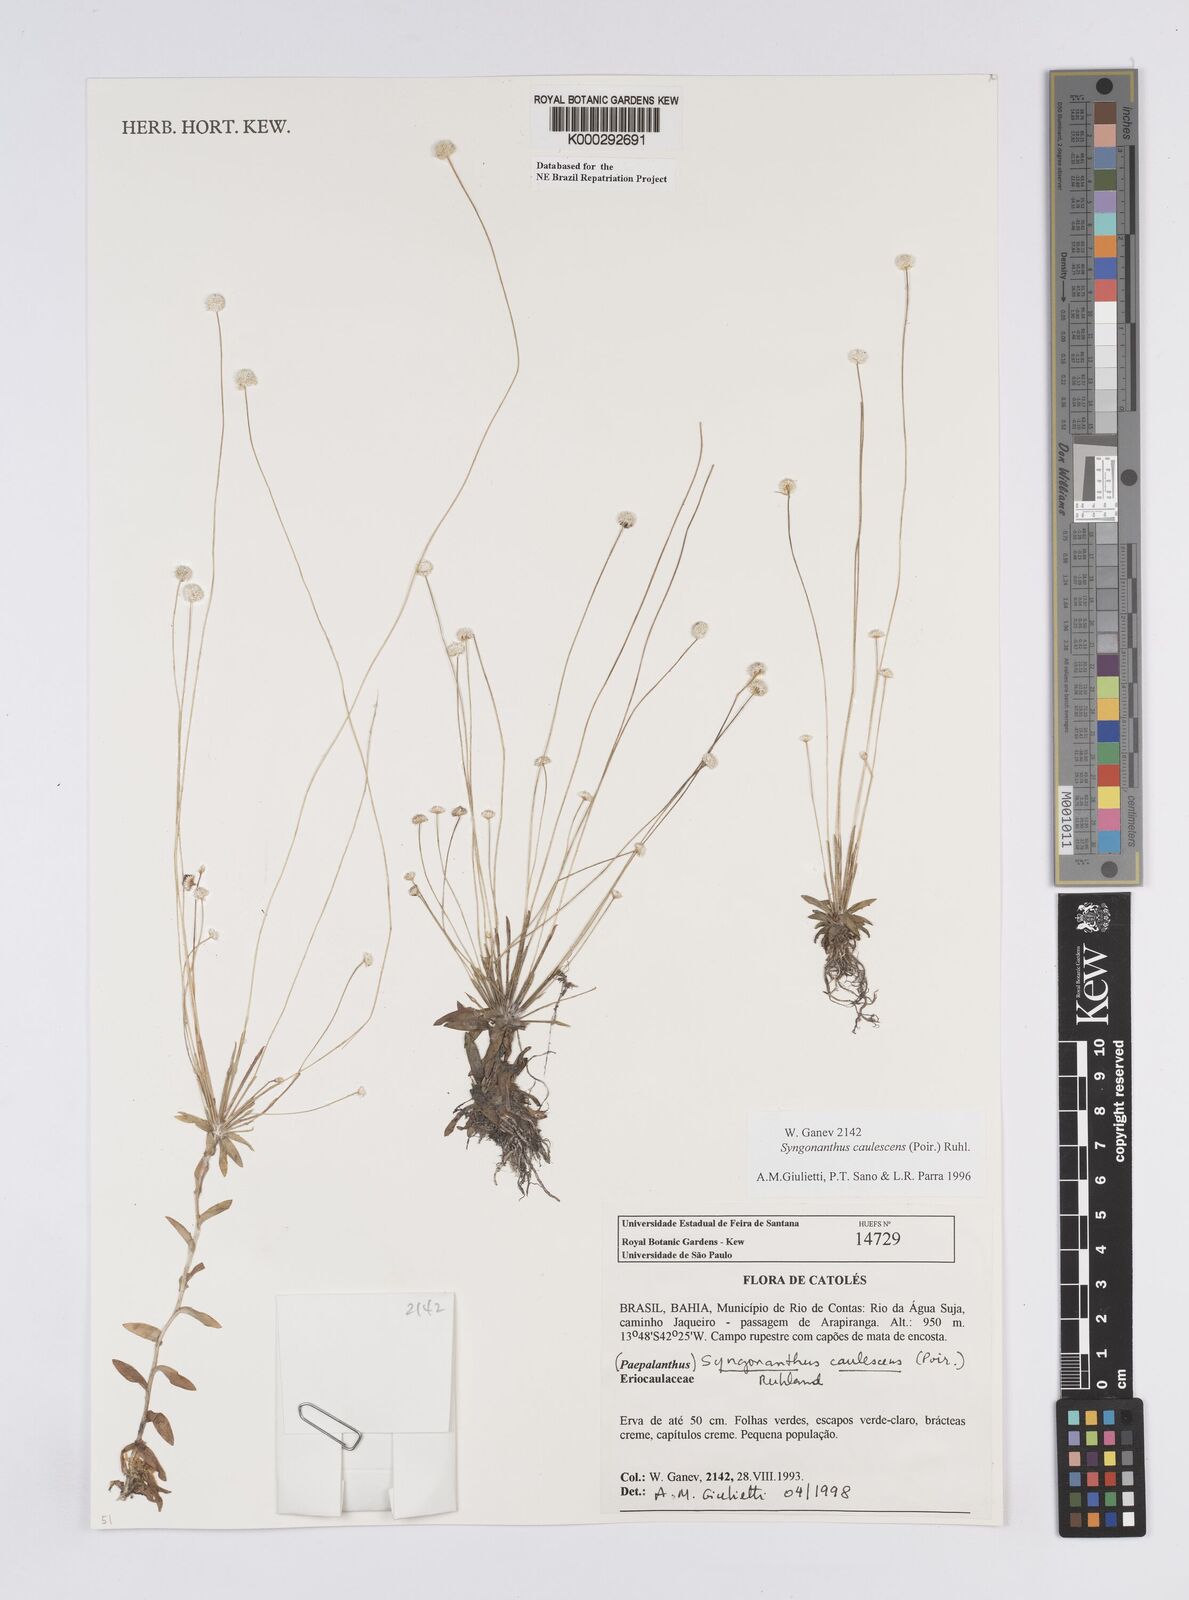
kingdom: Plantae
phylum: Tracheophyta
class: Liliopsida
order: Poales
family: Eriocaulaceae
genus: Syngonanthus
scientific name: Syngonanthus caulescens
